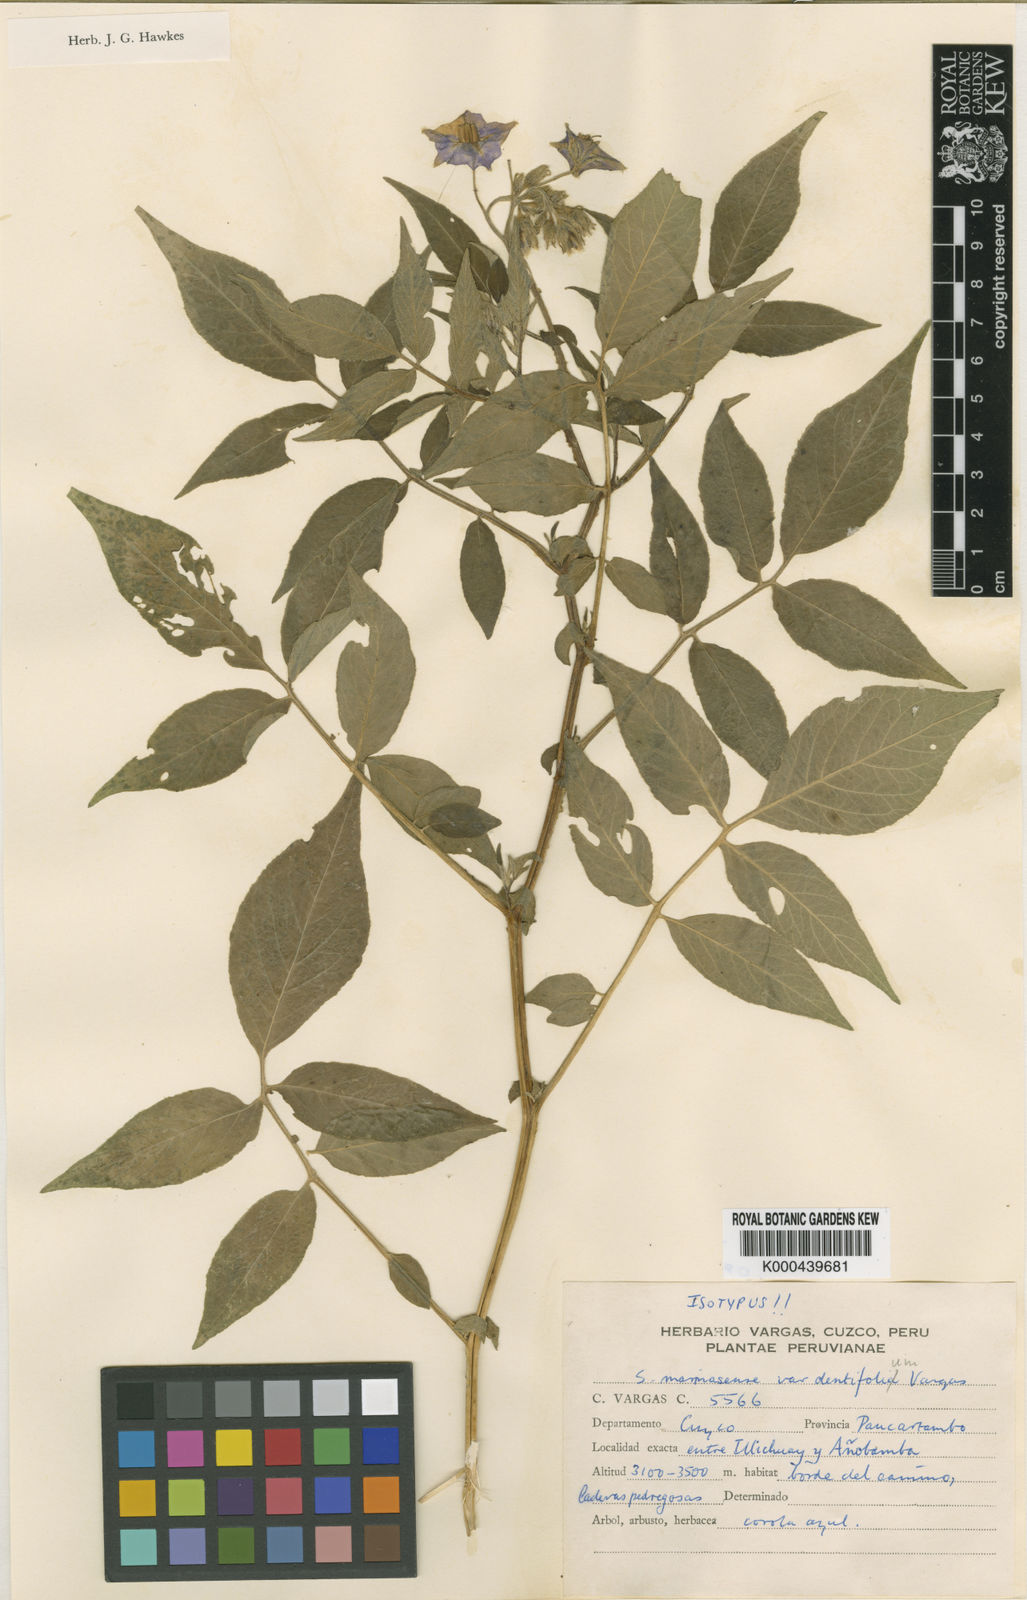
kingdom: Plantae
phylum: Tracheophyta
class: Magnoliopsida
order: Solanales
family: Solanaceae
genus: Solanum
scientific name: Solanum candolleanum
